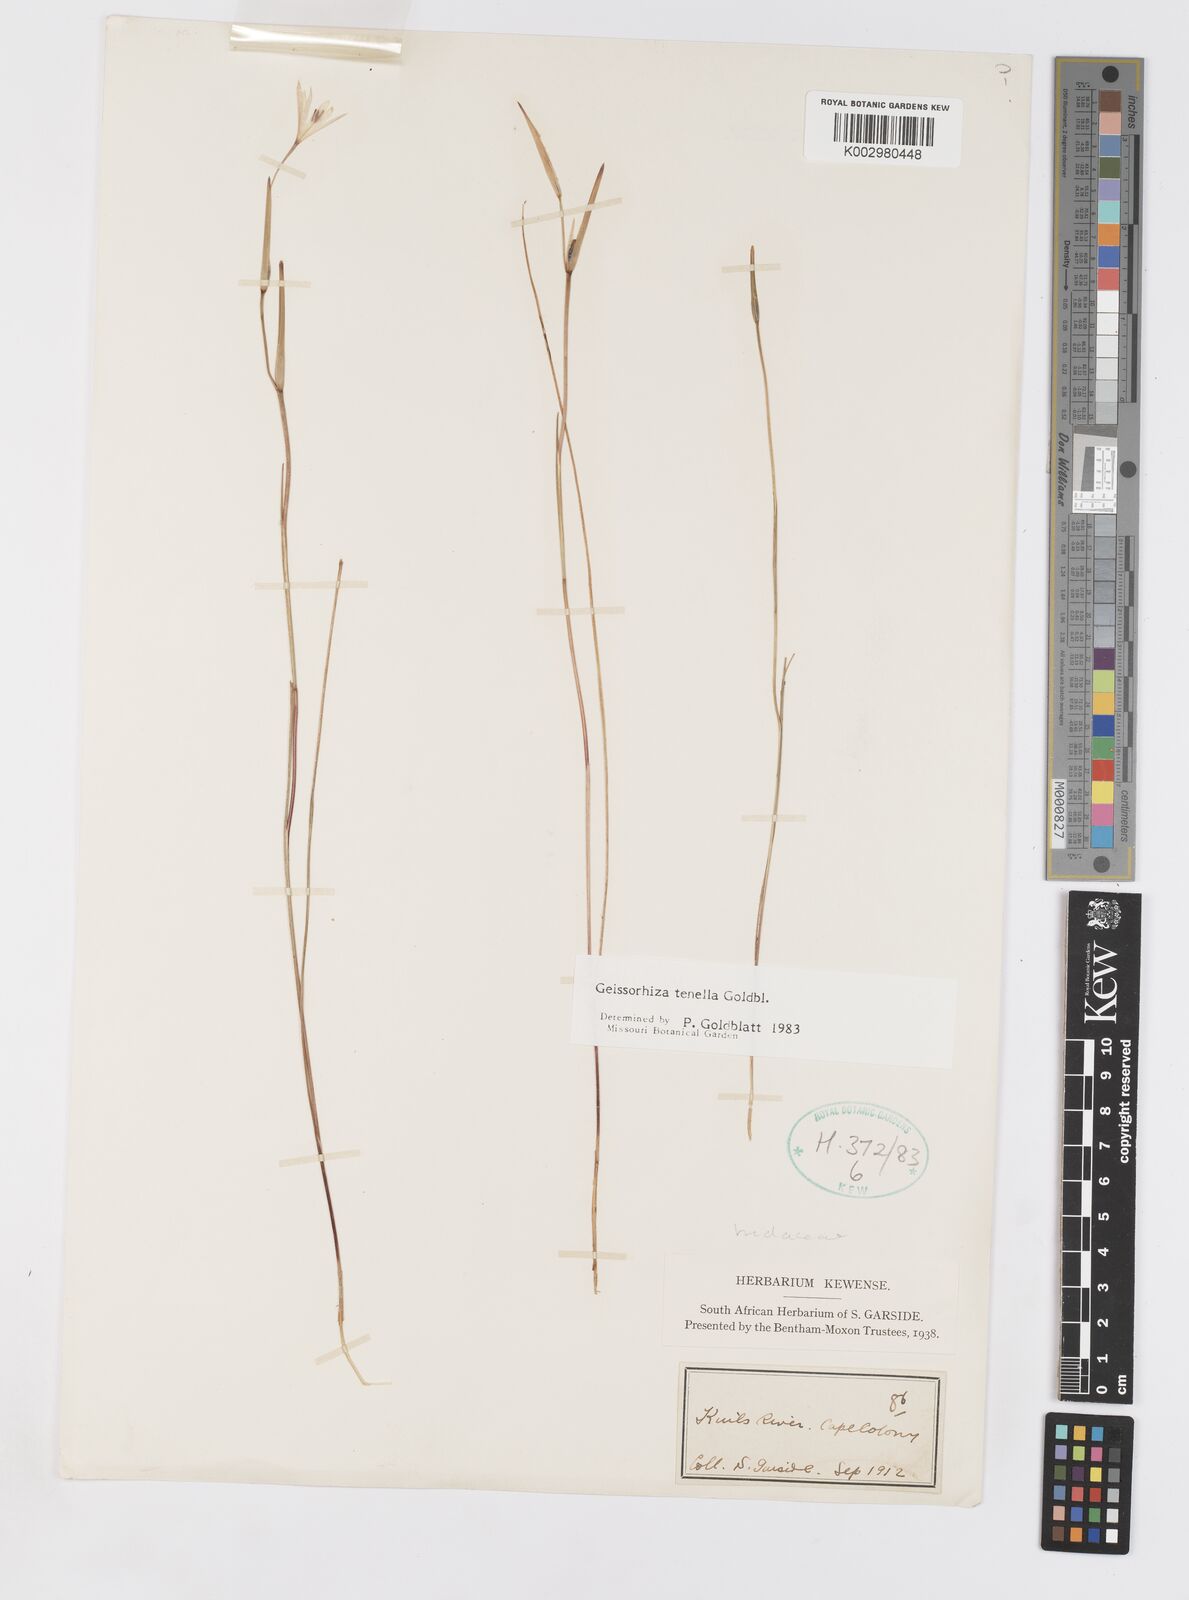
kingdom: Plantae
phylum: Tracheophyta
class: Liliopsida
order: Asparagales
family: Iridaceae
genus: Geissorhiza
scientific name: Geissorhiza tenella
